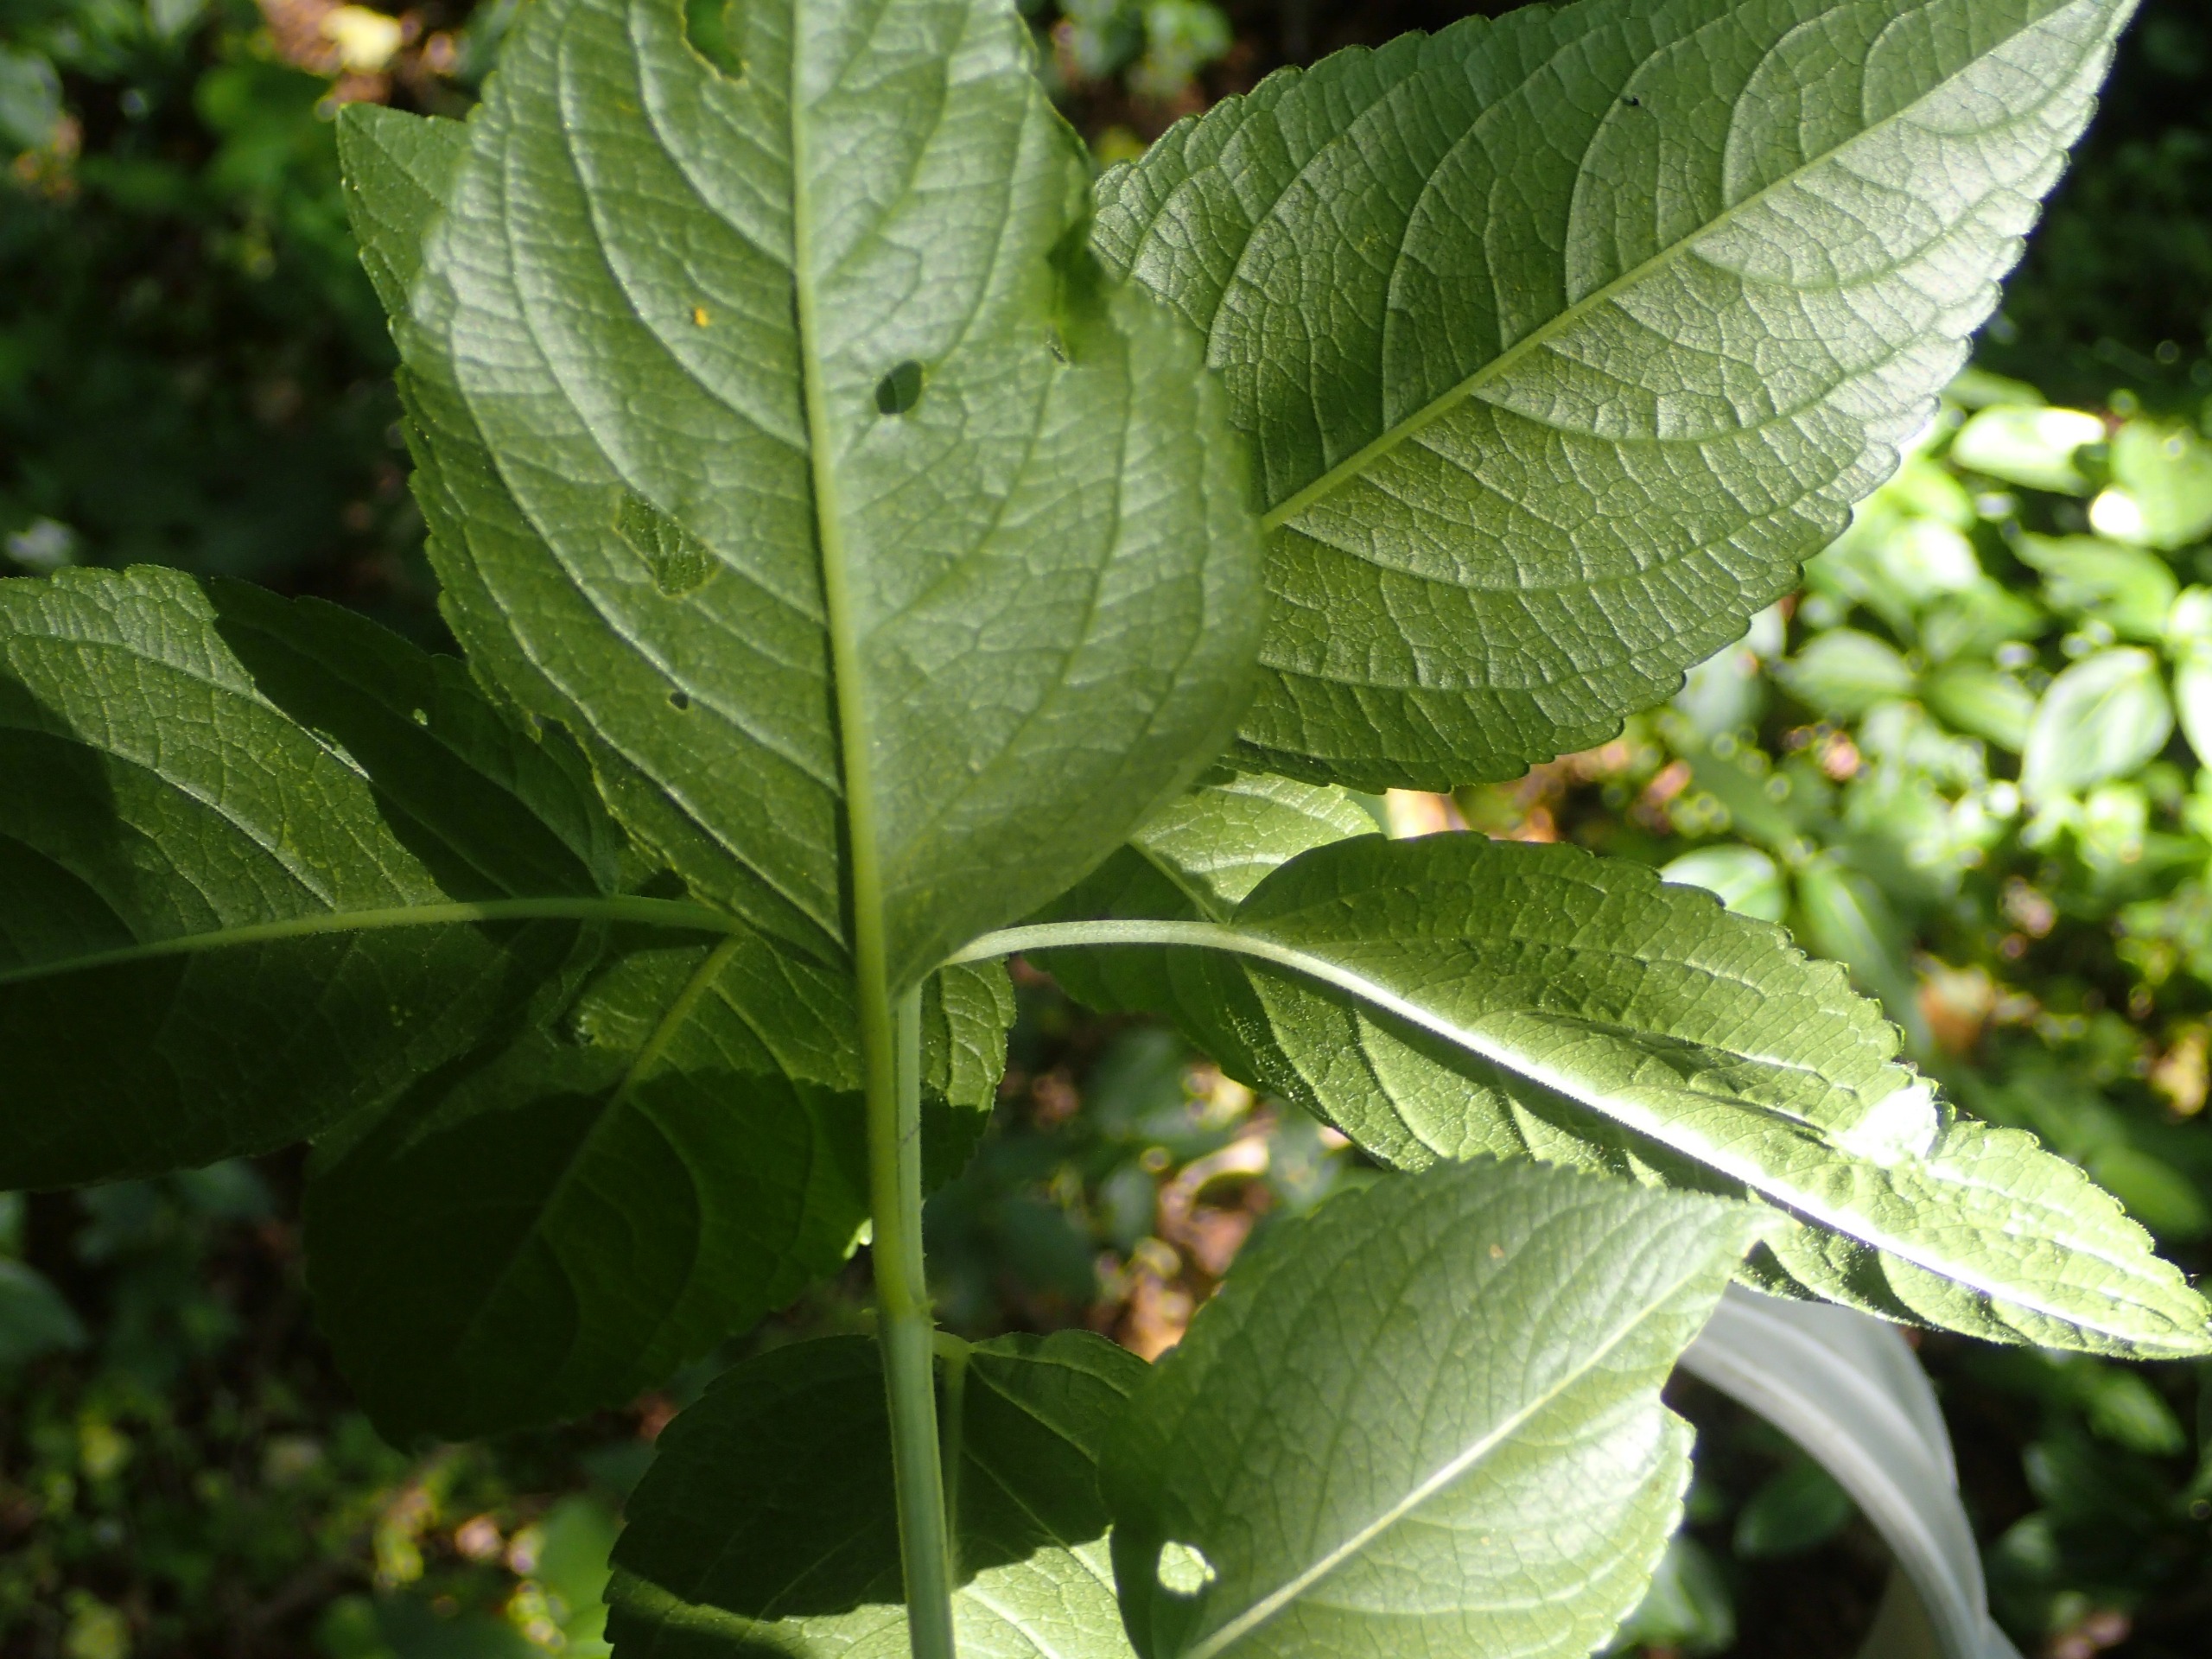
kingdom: Plantae
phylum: Tracheophyta
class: Magnoliopsida
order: Malpighiales
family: Euphorbiaceae
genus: Mercurialis
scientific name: Mercurialis perennis
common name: Almindelig bingelurt
